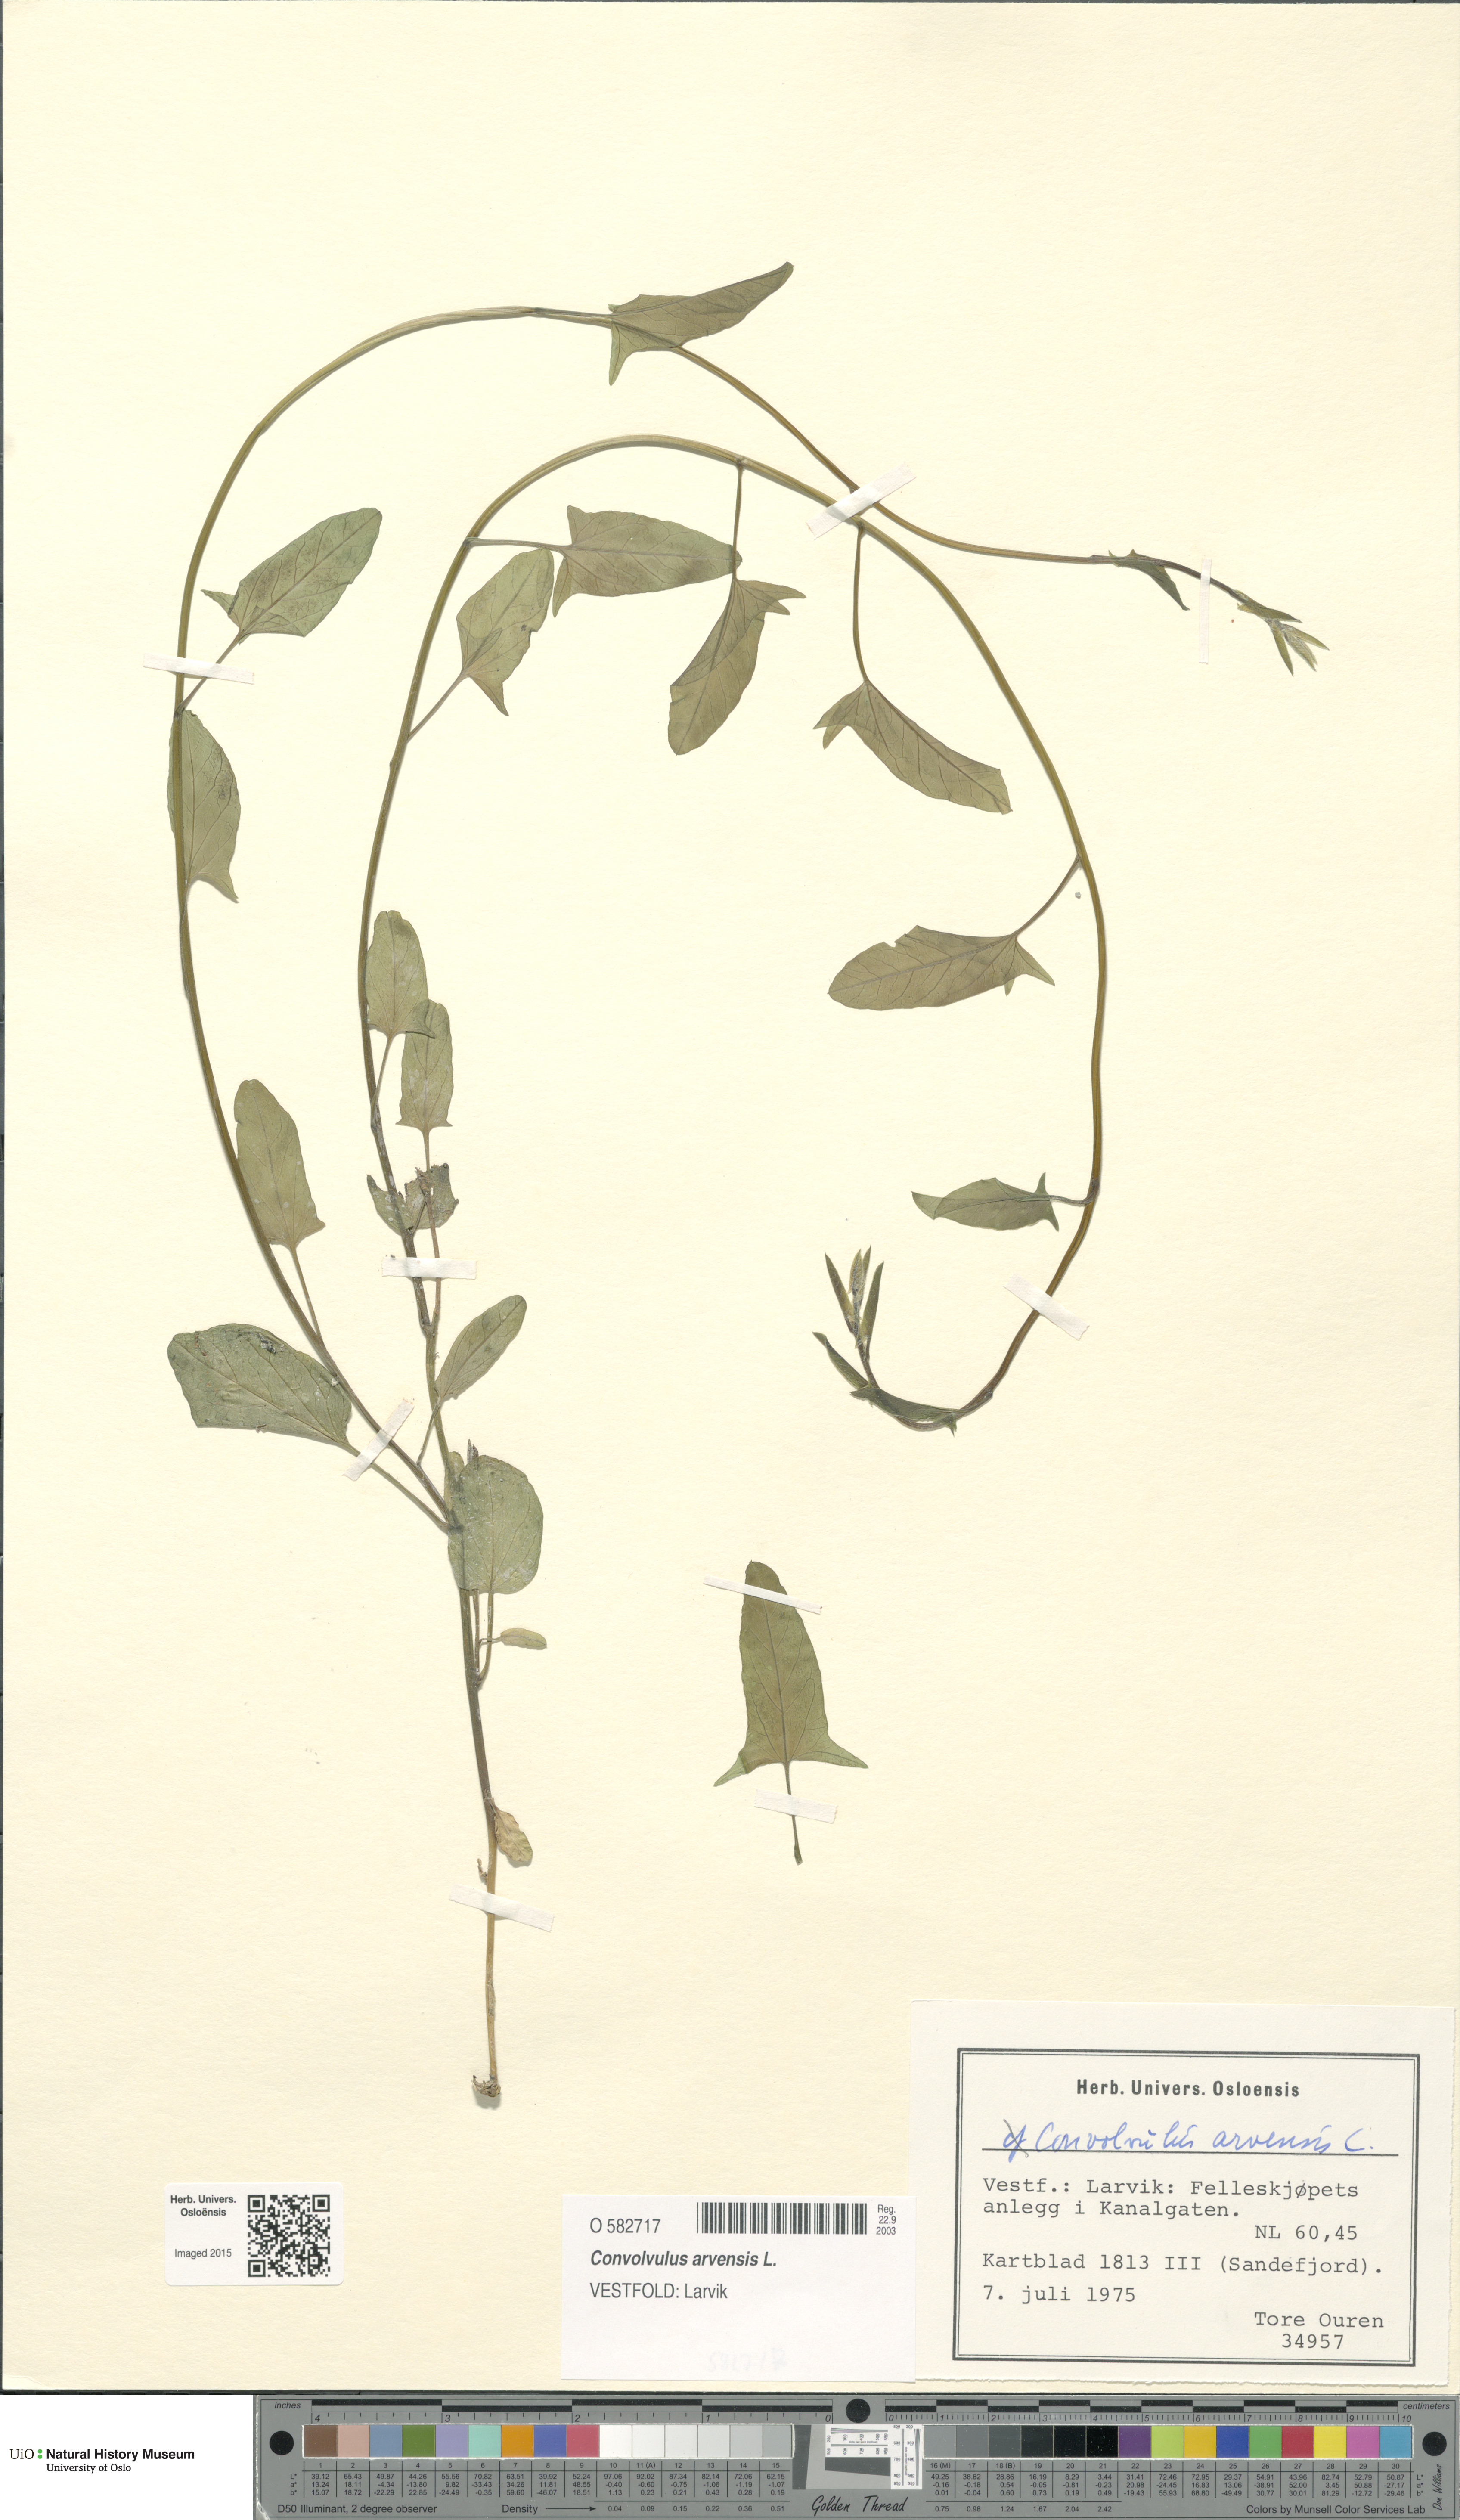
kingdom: Plantae
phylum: Tracheophyta
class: Magnoliopsida
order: Solanales
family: Convolvulaceae
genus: Convolvulus
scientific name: Convolvulus arvensis
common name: Field bindweed
